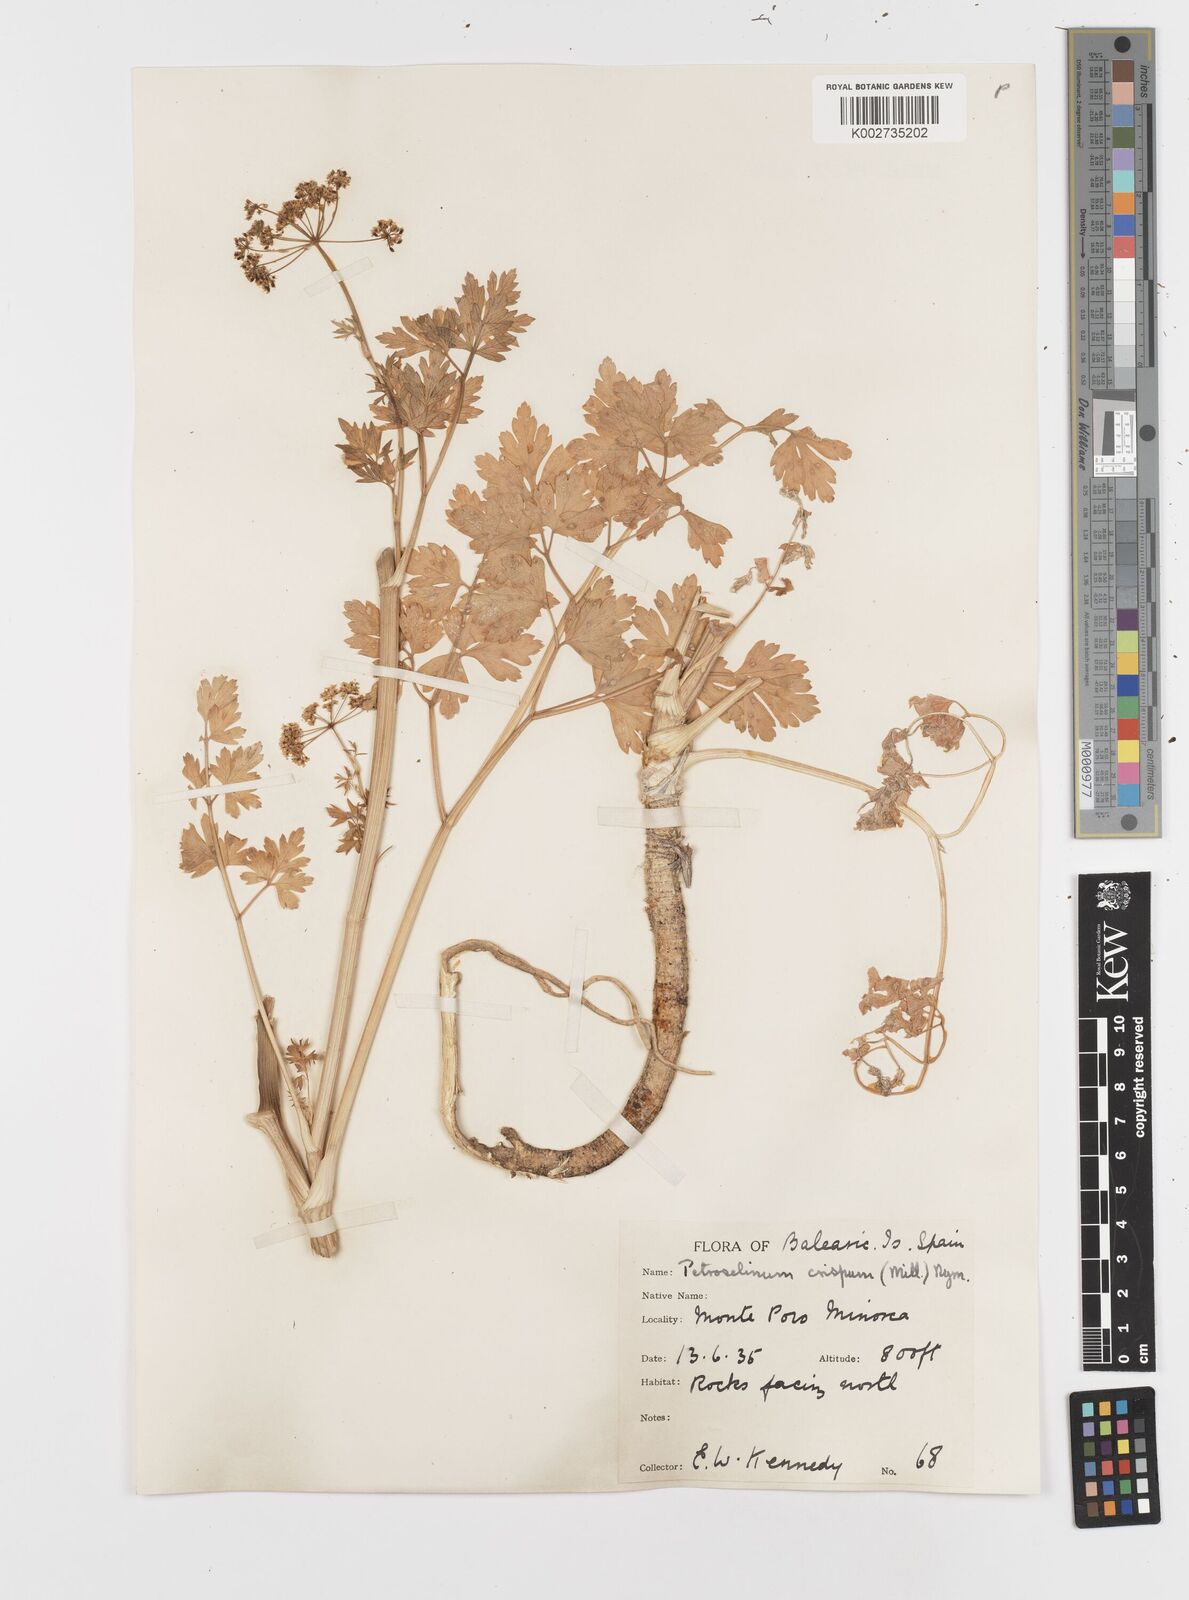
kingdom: Plantae
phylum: Tracheophyta
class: Magnoliopsida
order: Apiales
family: Apiaceae
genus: Petroselinum
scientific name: Petroselinum crispum
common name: Parsley
